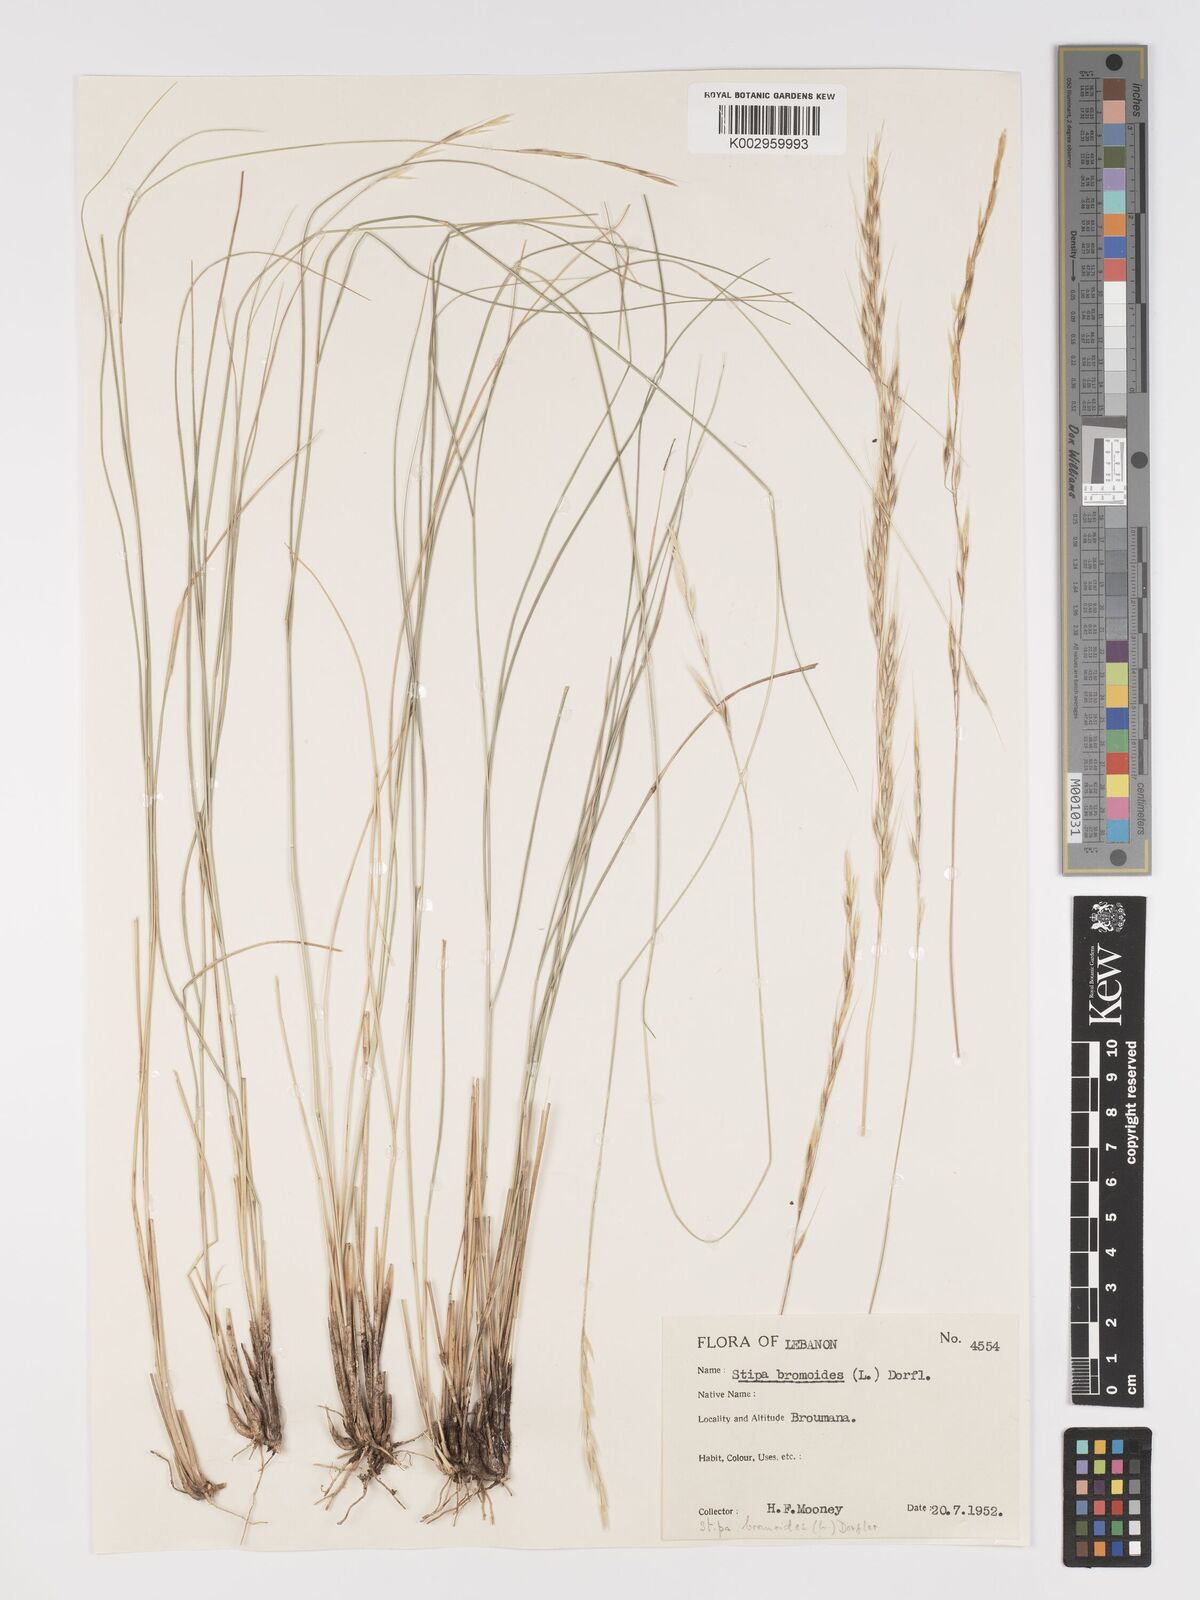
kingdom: Plantae
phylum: Tracheophyta
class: Liliopsida
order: Poales
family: Poaceae
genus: Achnatherum
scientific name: Achnatherum bromoides
